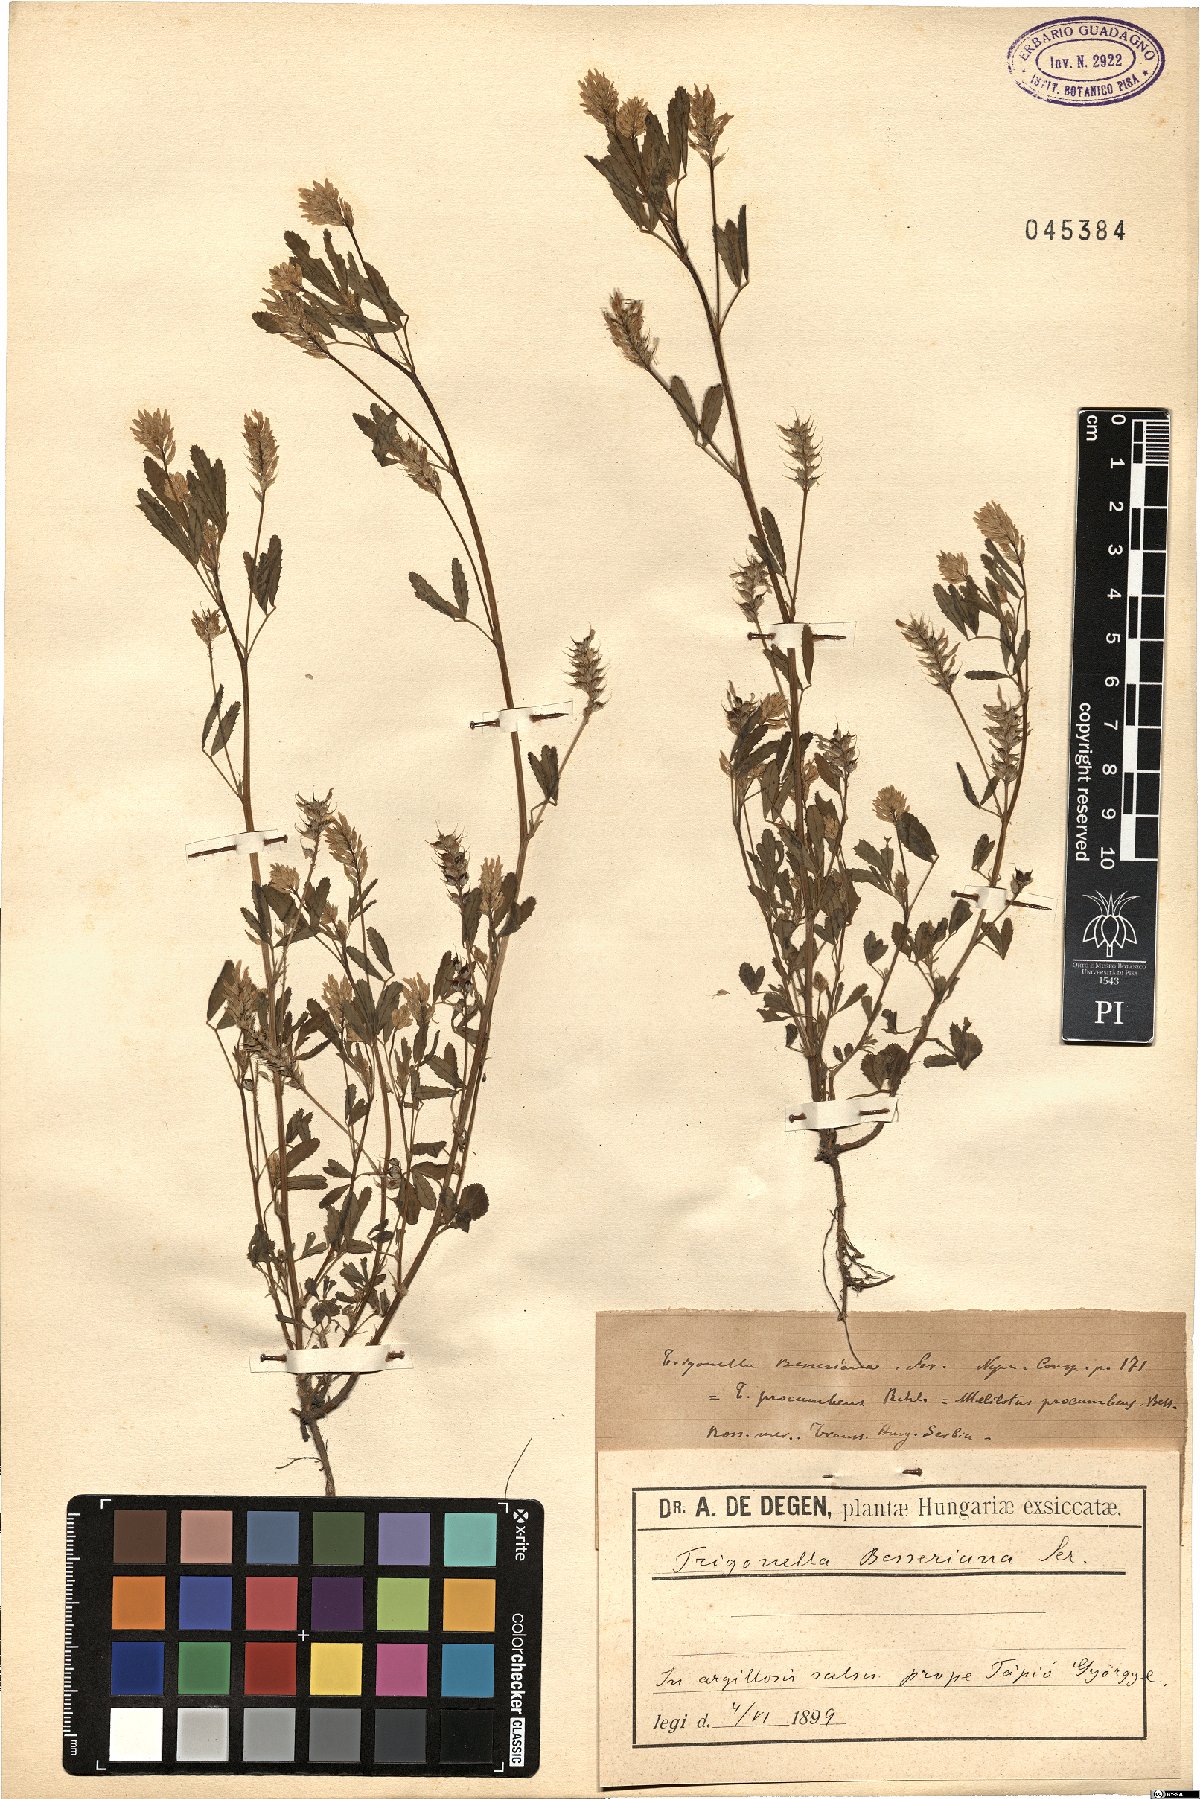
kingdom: Plantae
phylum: Tracheophyta
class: Magnoliopsida
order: Fabales
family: Fabaceae
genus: Trigonella
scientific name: Trigonella procumbens
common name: Trailing fenugreek
